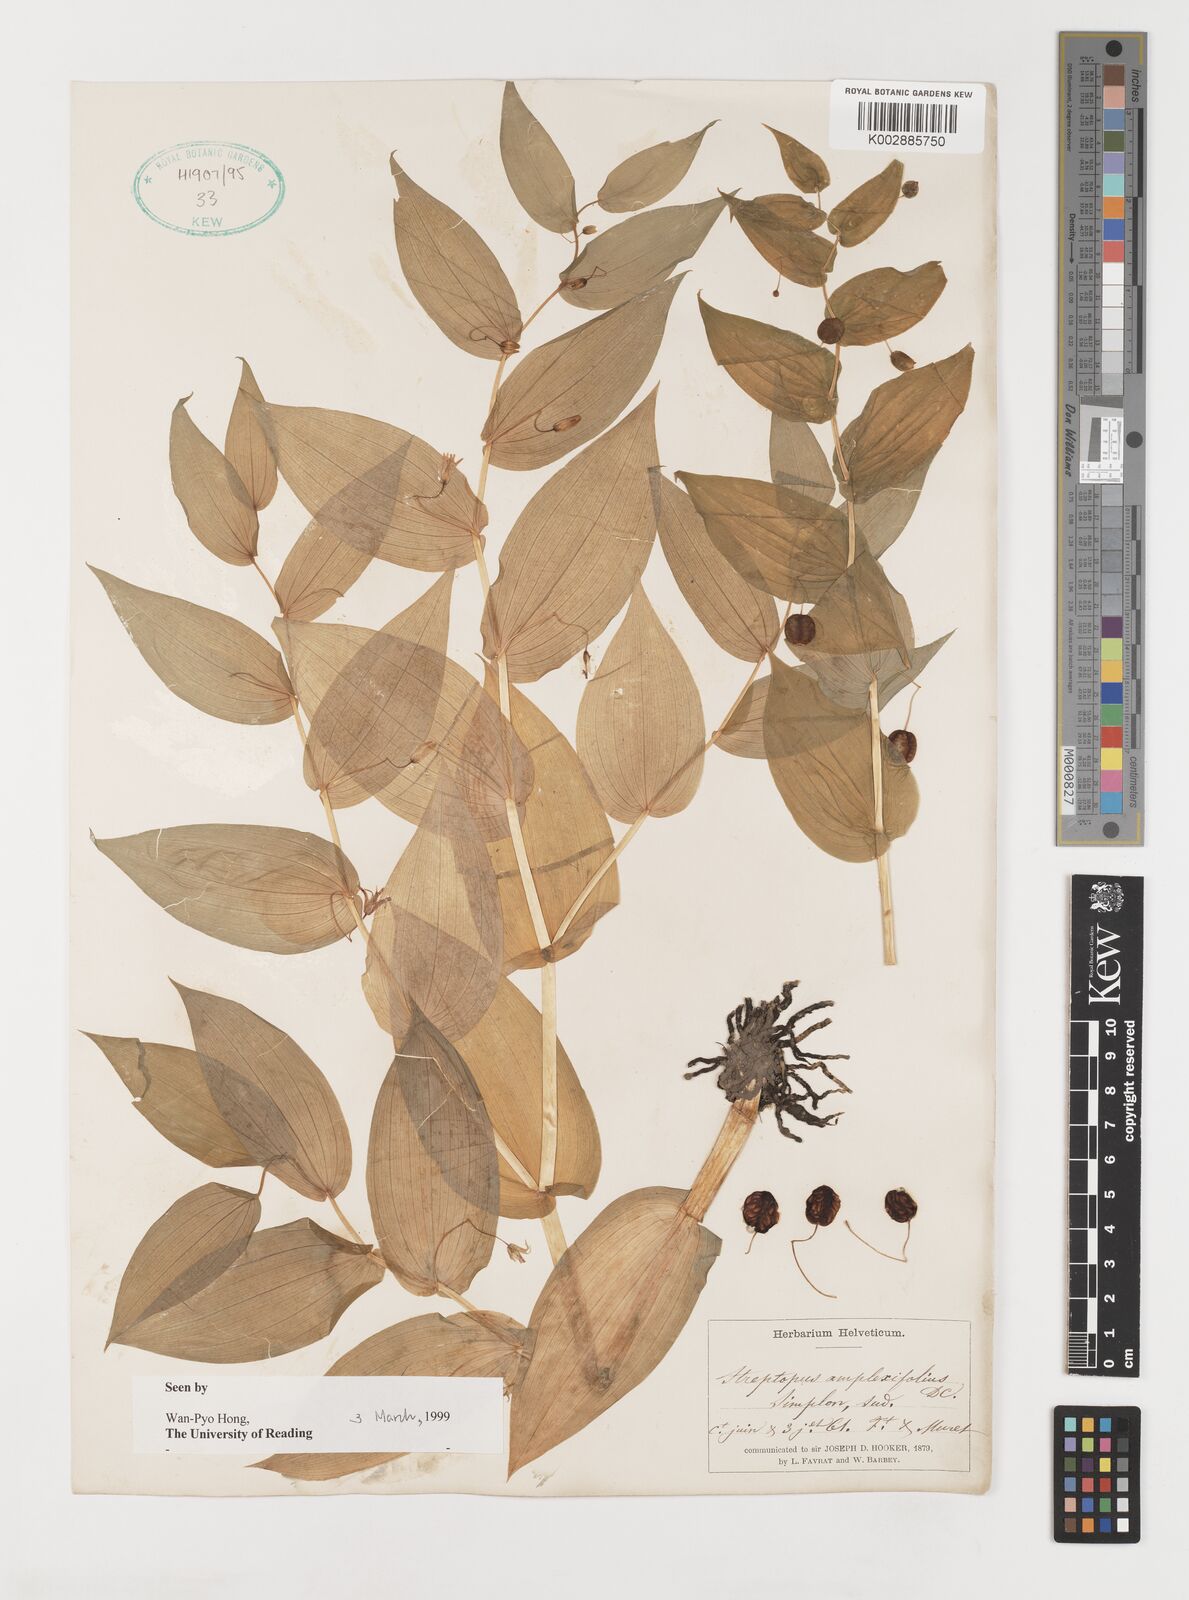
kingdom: Plantae
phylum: Tracheophyta
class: Liliopsida
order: Liliales
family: Liliaceae
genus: Streptopus
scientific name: Streptopus amplexifolius
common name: Clasp twisted stalk
